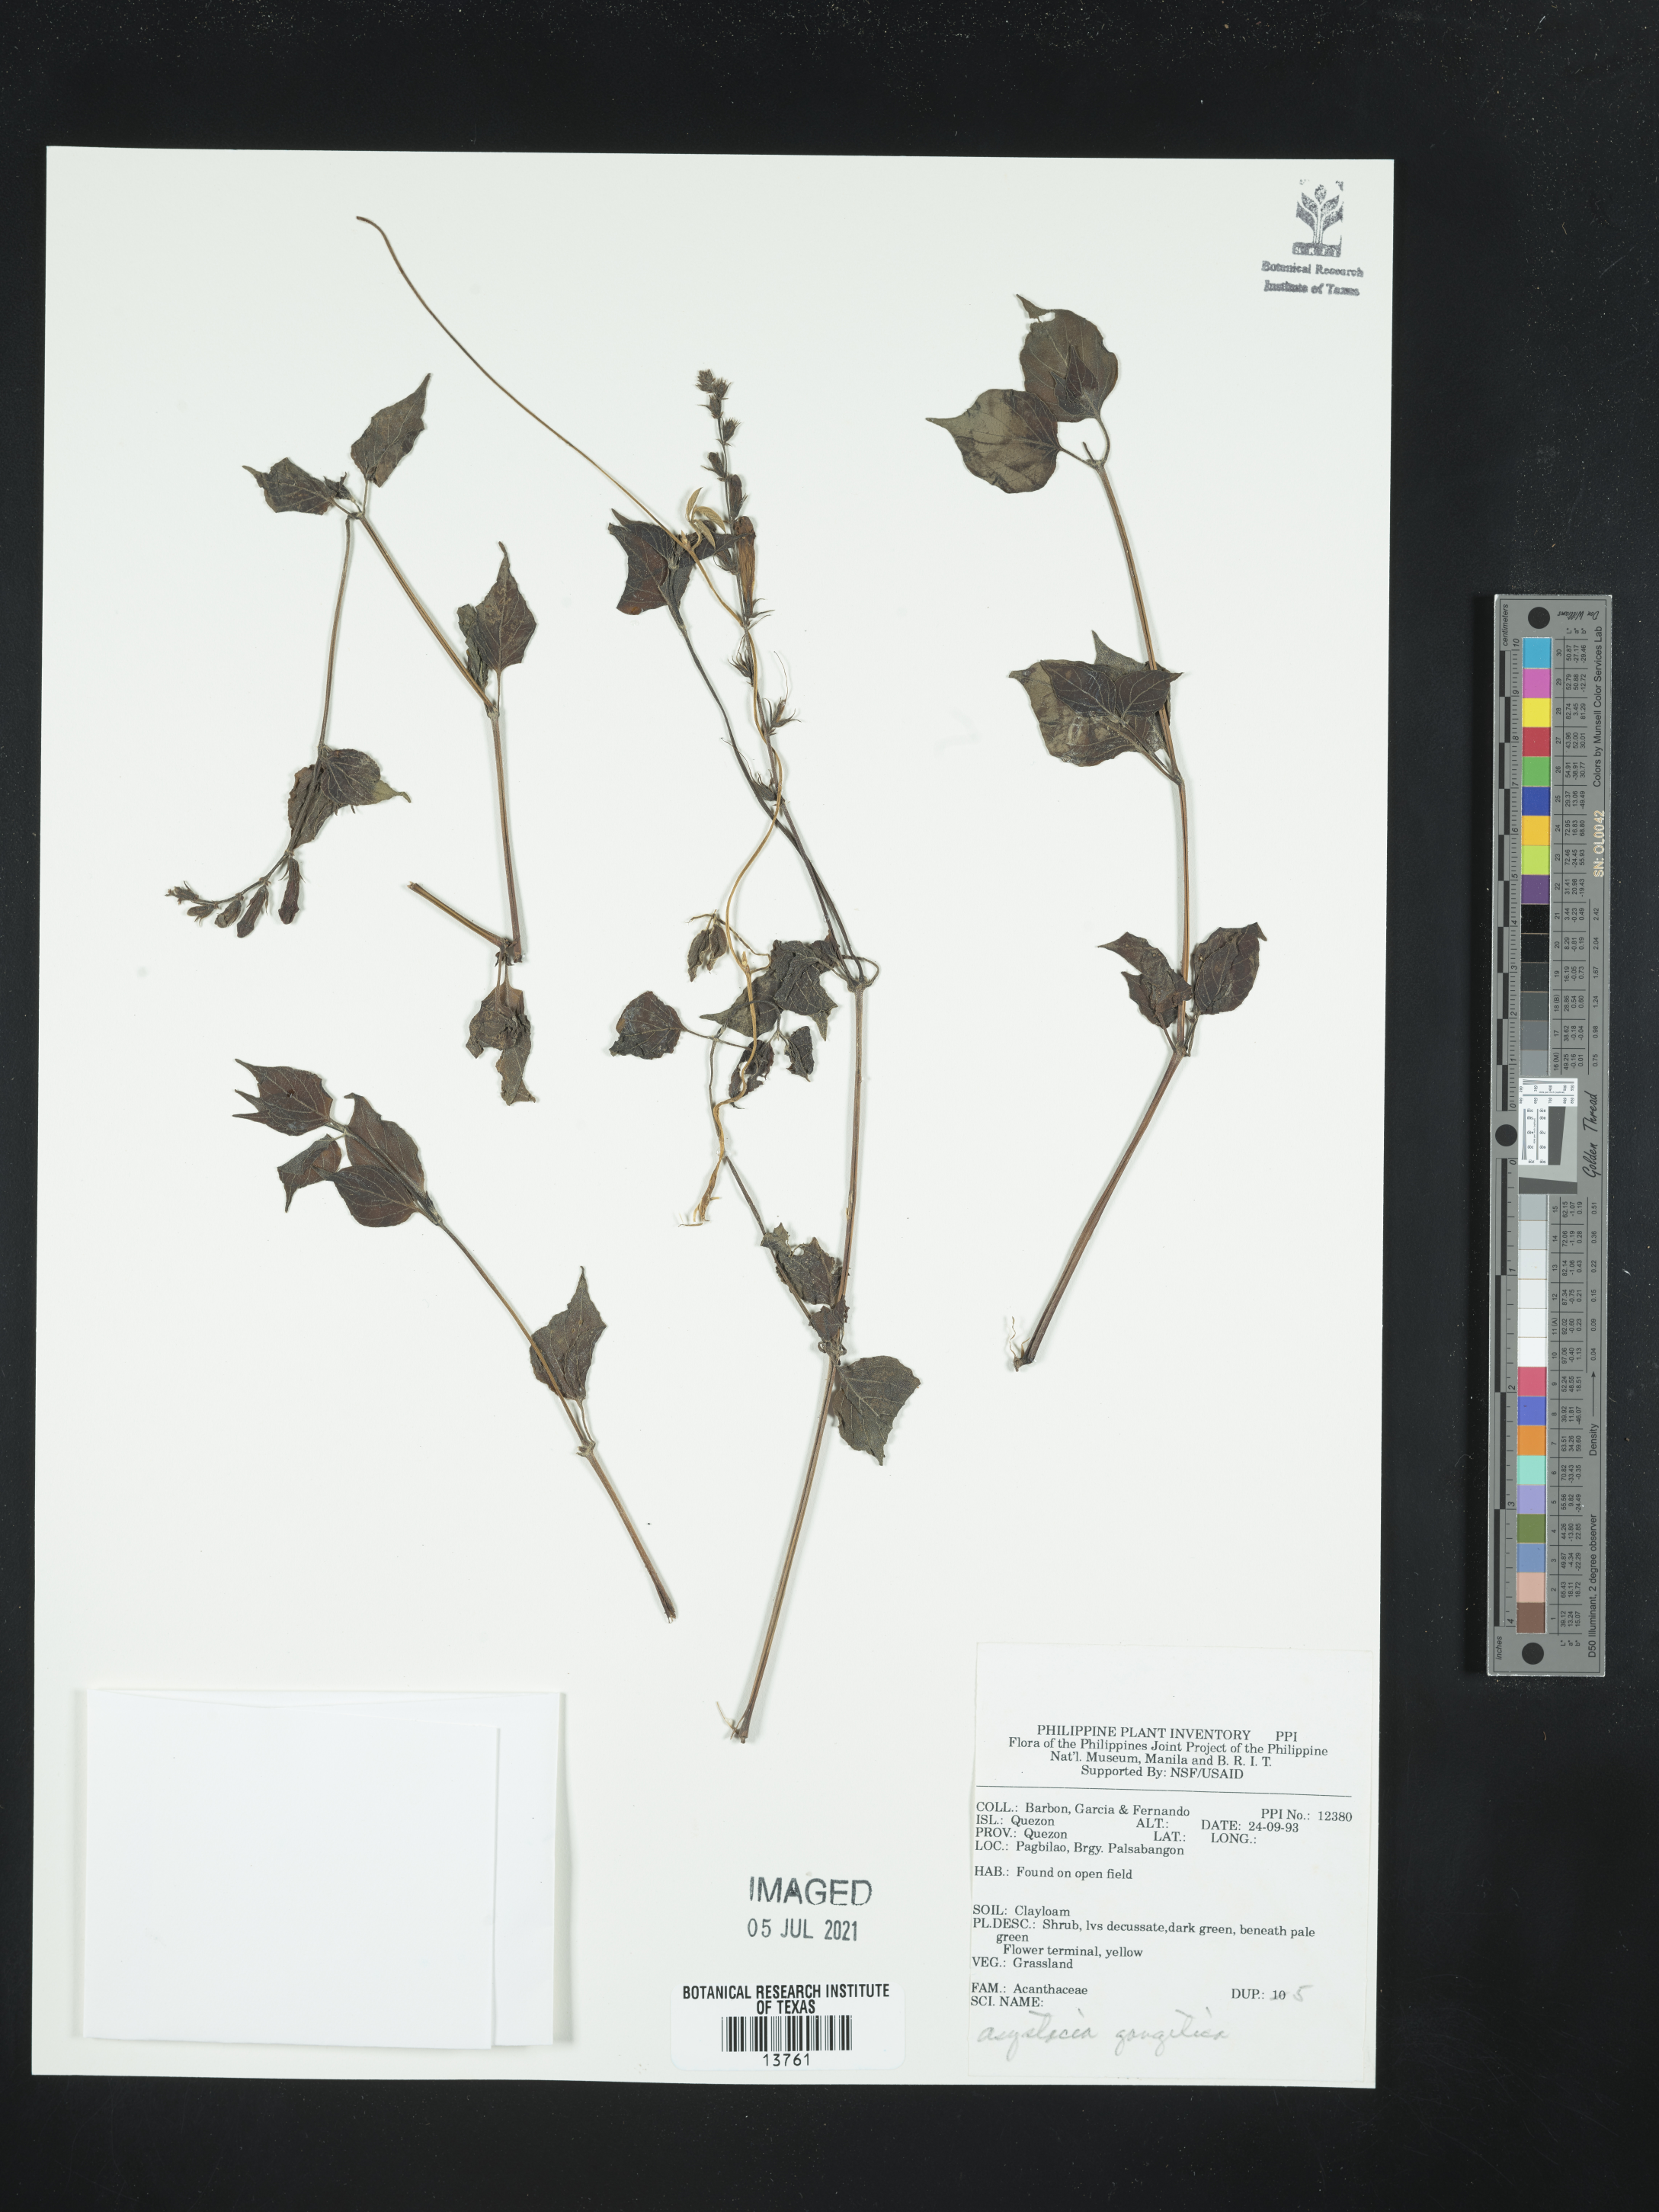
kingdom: Plantae
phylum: Tracheophyta
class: Magnoliopsida
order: Lamiales
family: Acanthaceae
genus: Asystasia
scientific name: Asystasia gangetica
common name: Chinese violet
